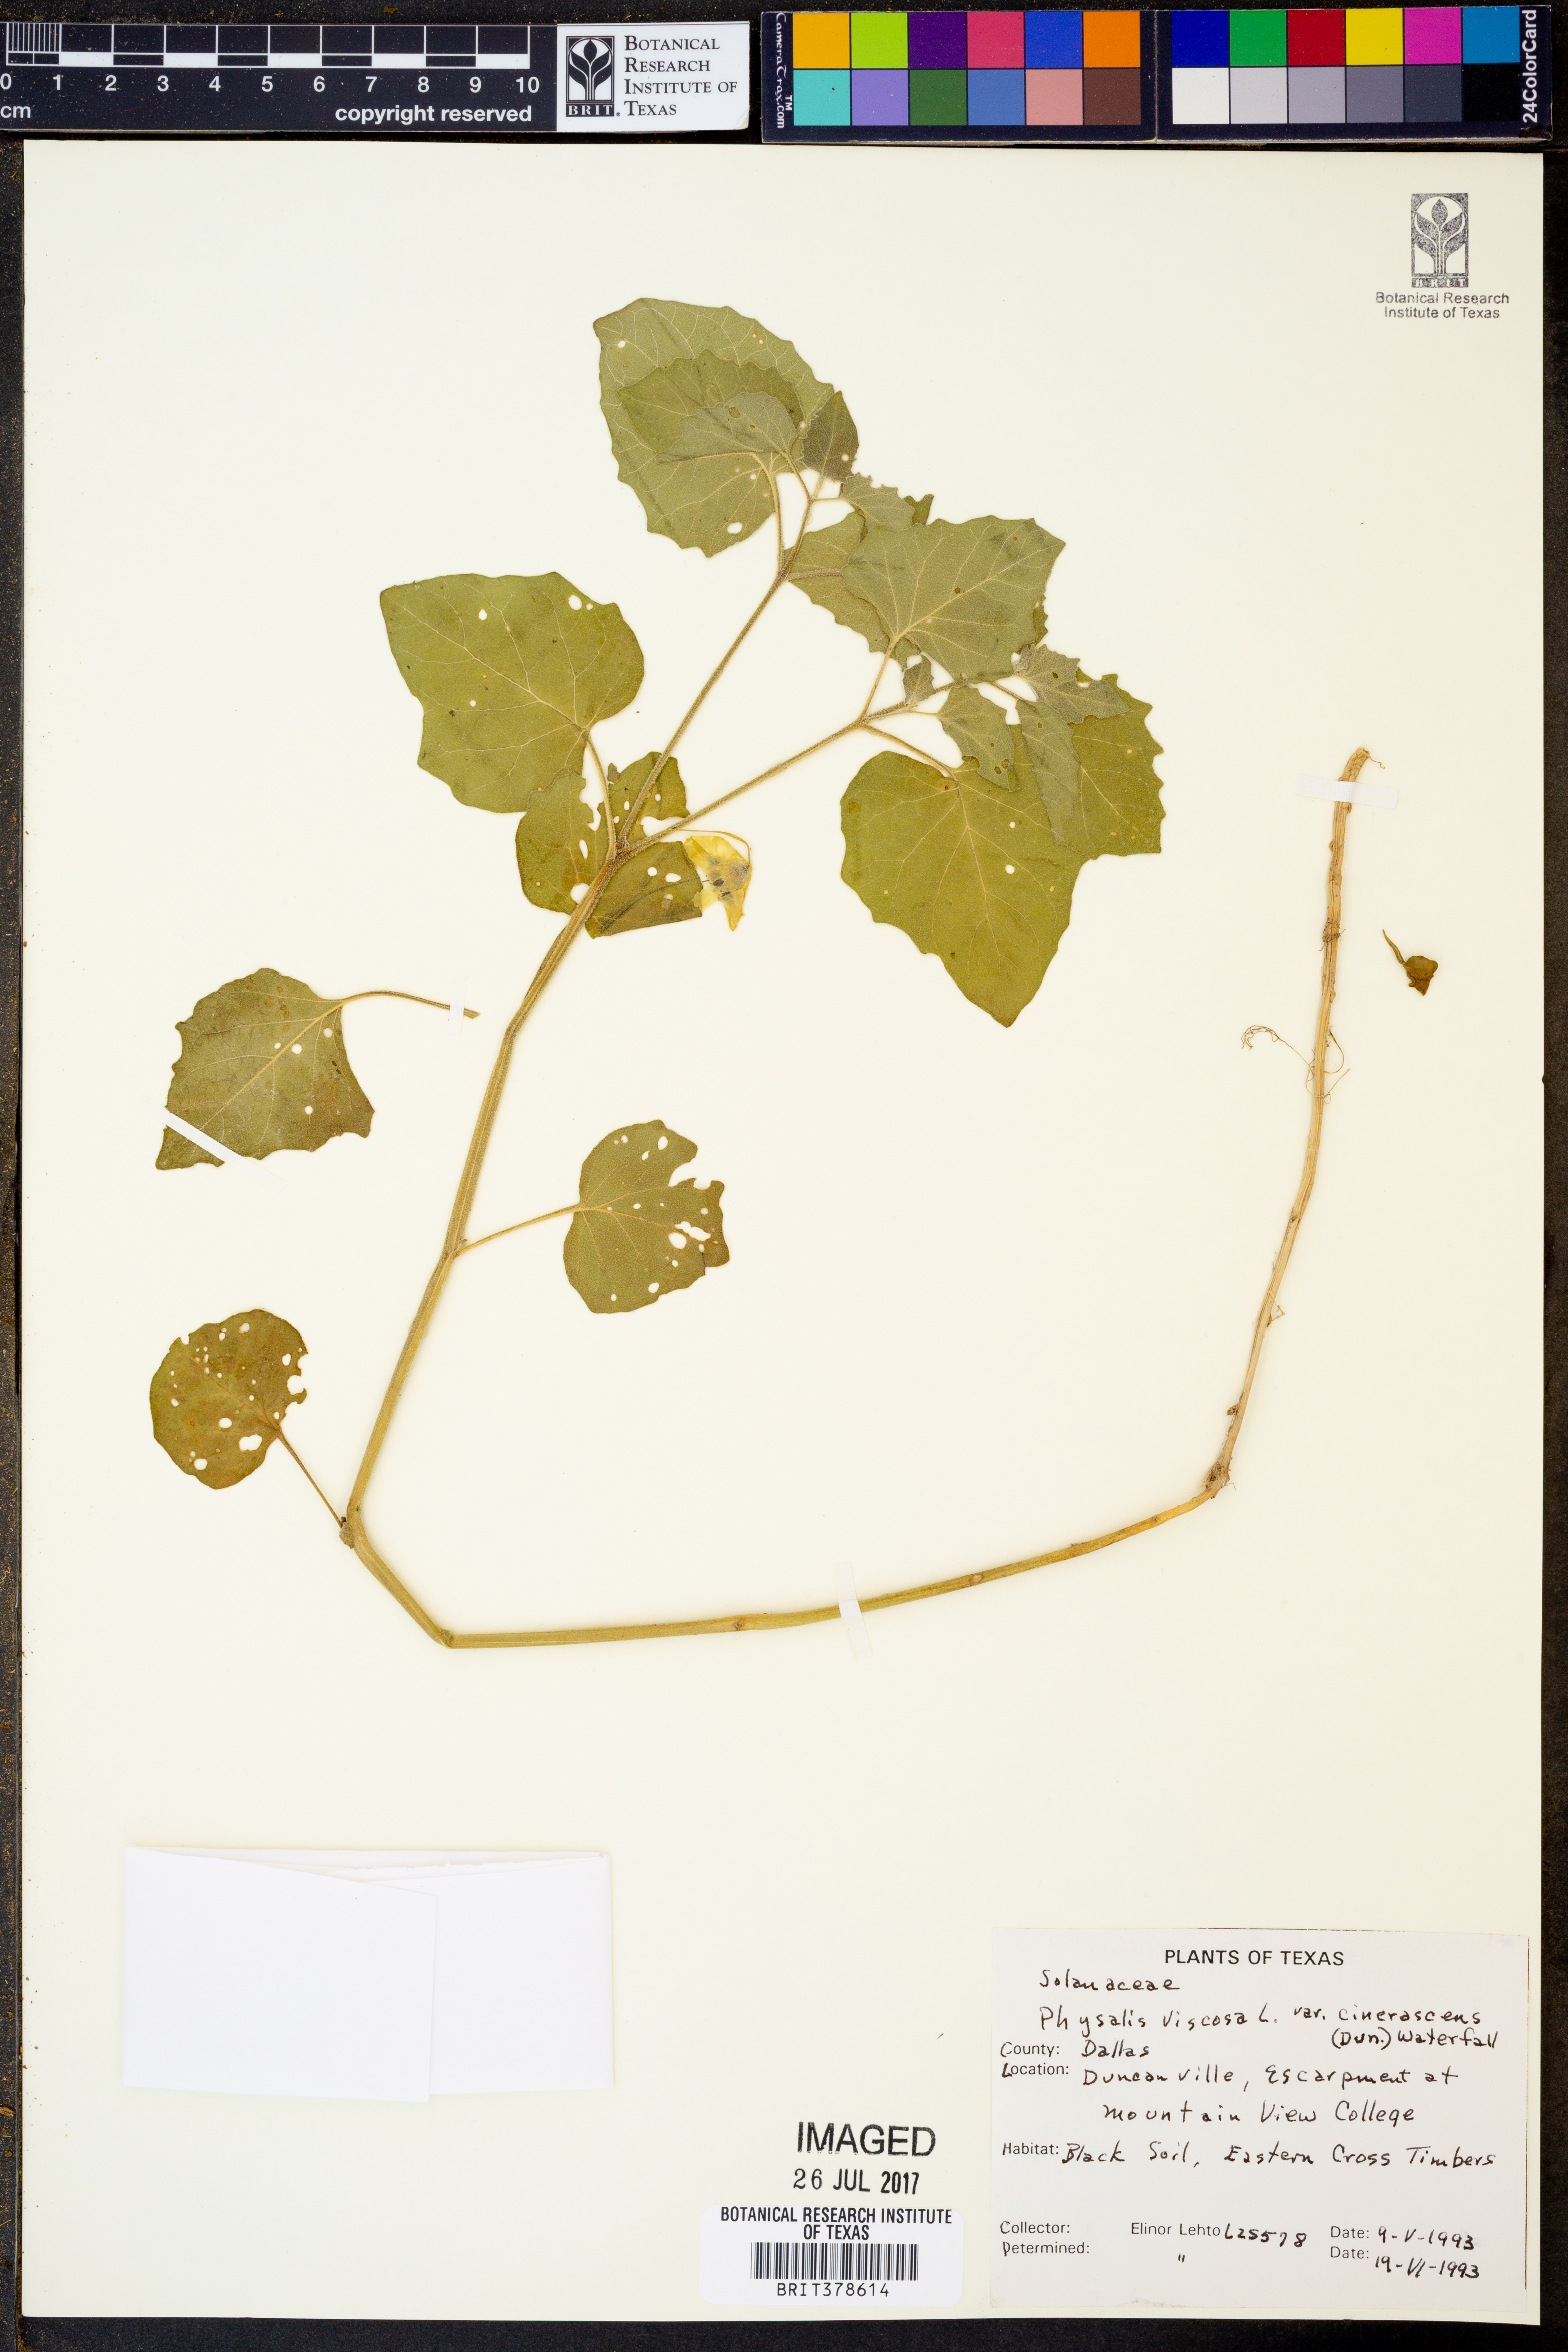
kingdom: Plantae
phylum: Tracheophyta
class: Magnoliopsida
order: Solanales
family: Solanaceae
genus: Physalis
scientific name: Physalis cinerascens
